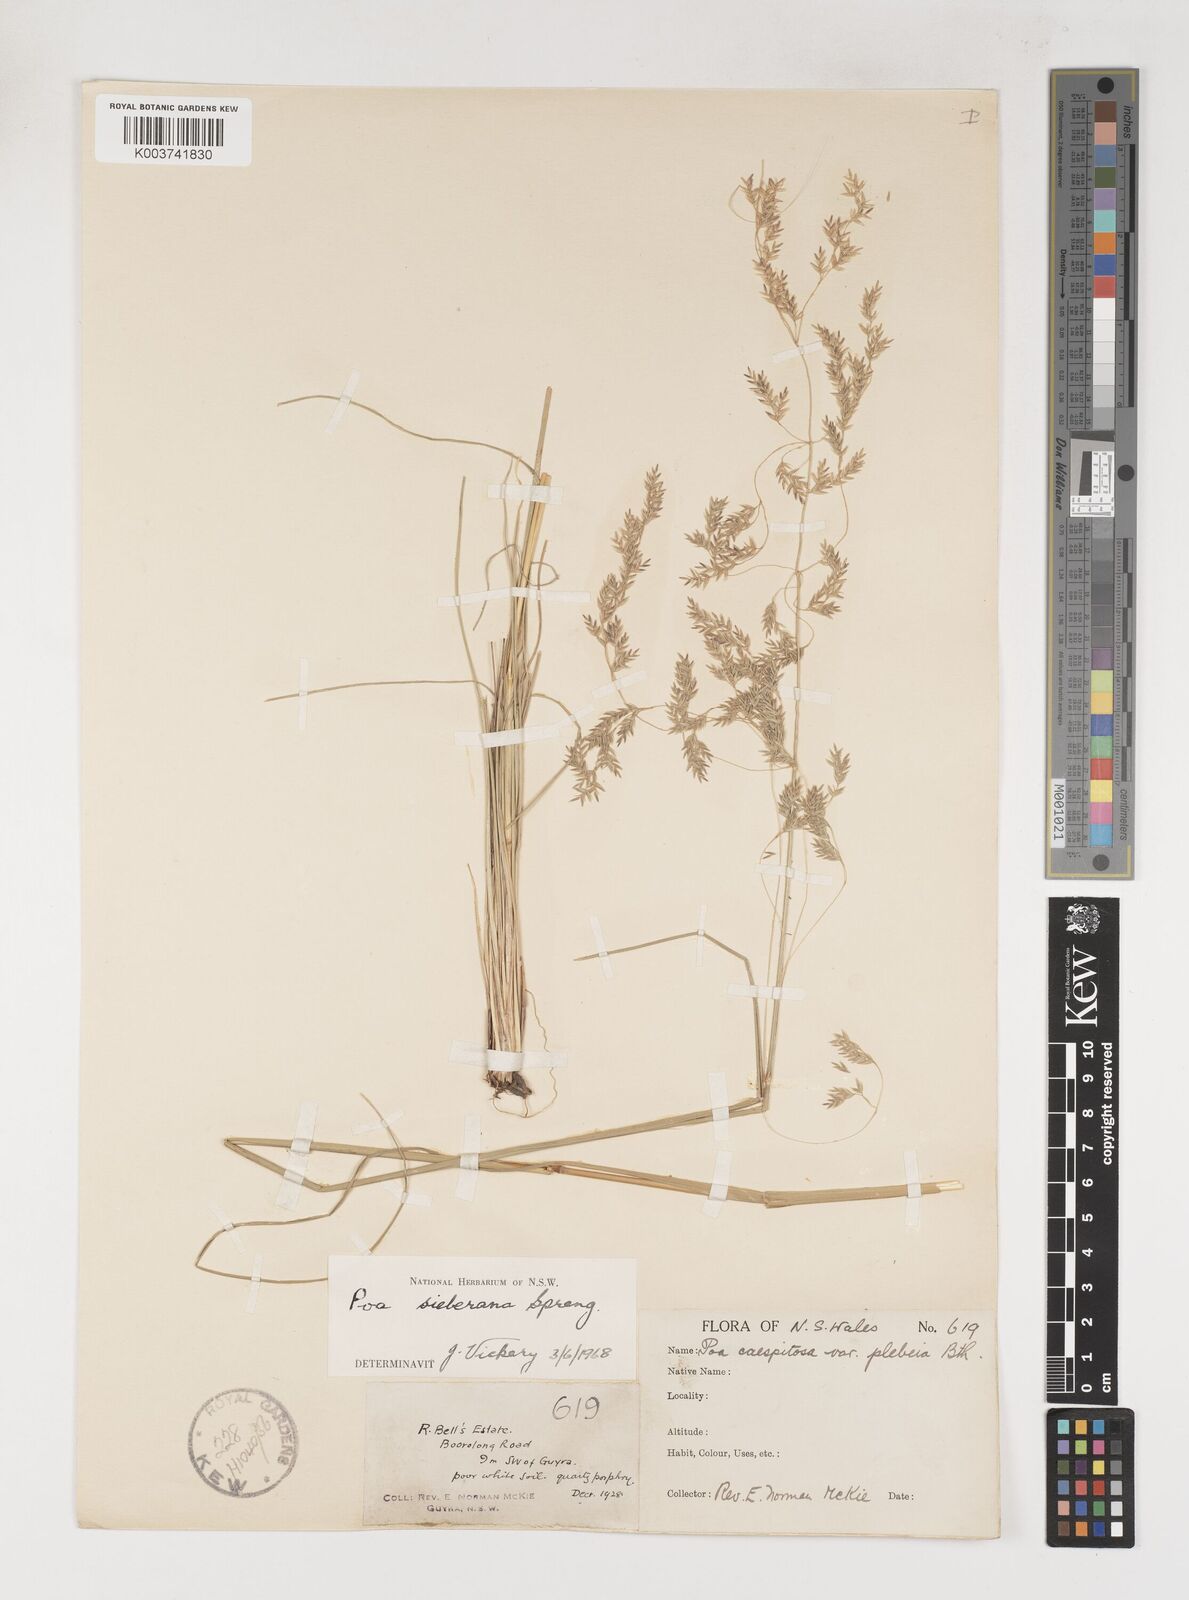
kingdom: Plantae
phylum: Tracheophyta
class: Liliopsida
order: Poales
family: Poaceae
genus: Poa
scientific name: Poa sieberiana
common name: Tussock poa
